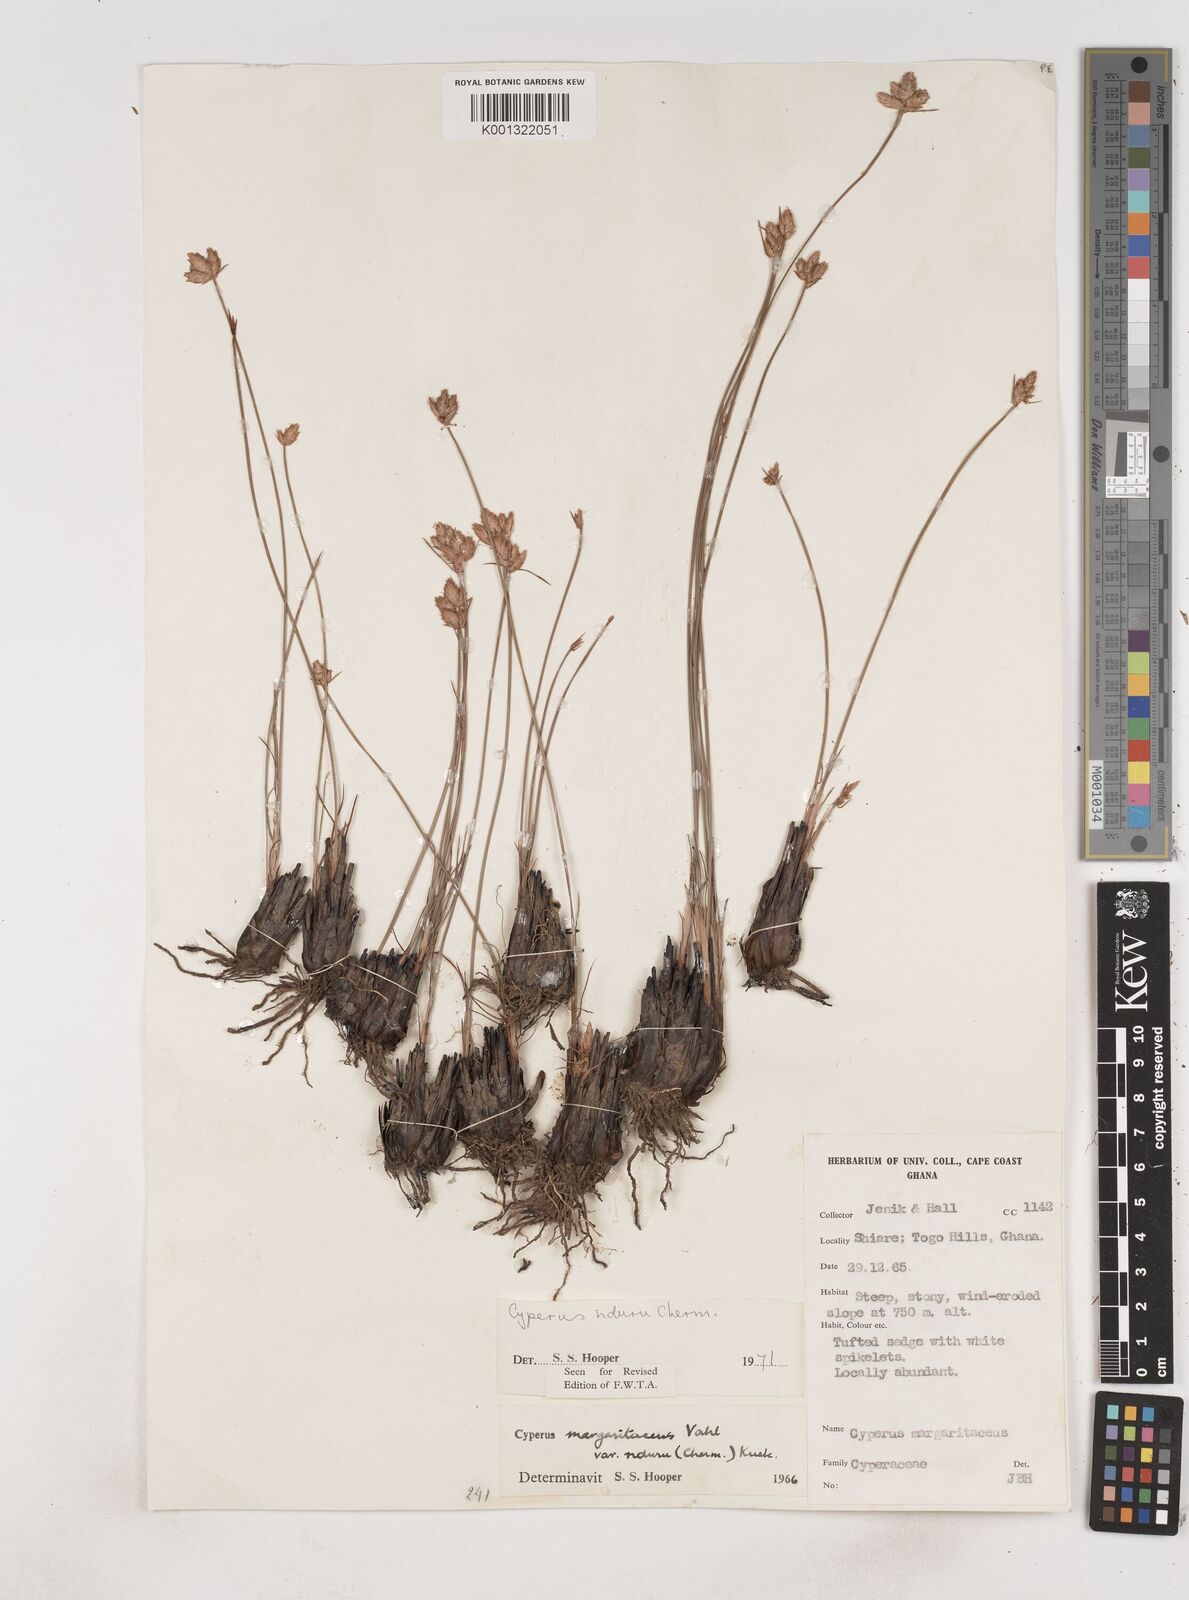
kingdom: Plantae
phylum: Tracheophyta
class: Liliopsida
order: Poales
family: Cyperaceae
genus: Cyperus
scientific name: Cyperus nduru
